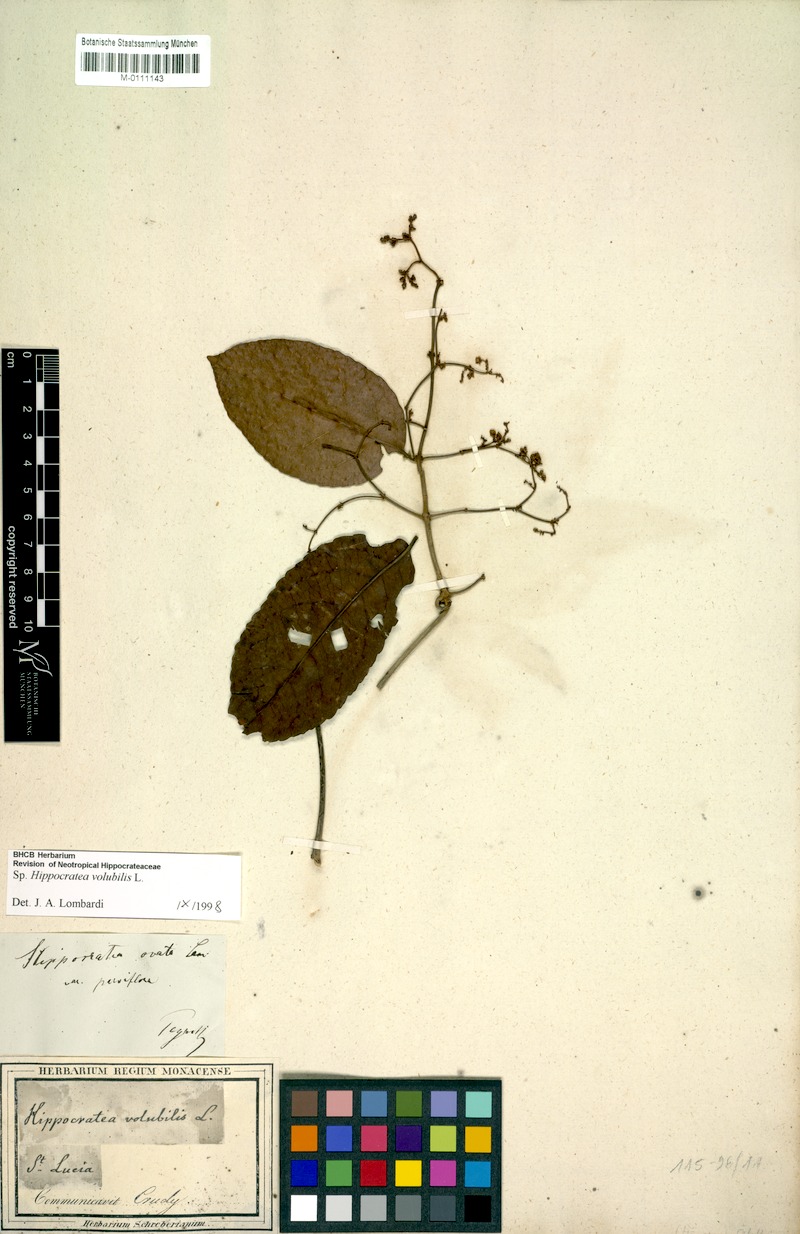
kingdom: Plantae
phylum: Tracheophyta
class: Magnoliopsida
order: Celastrales
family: Celastraceae
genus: Hippocratea
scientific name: Hippocratea volubilis
